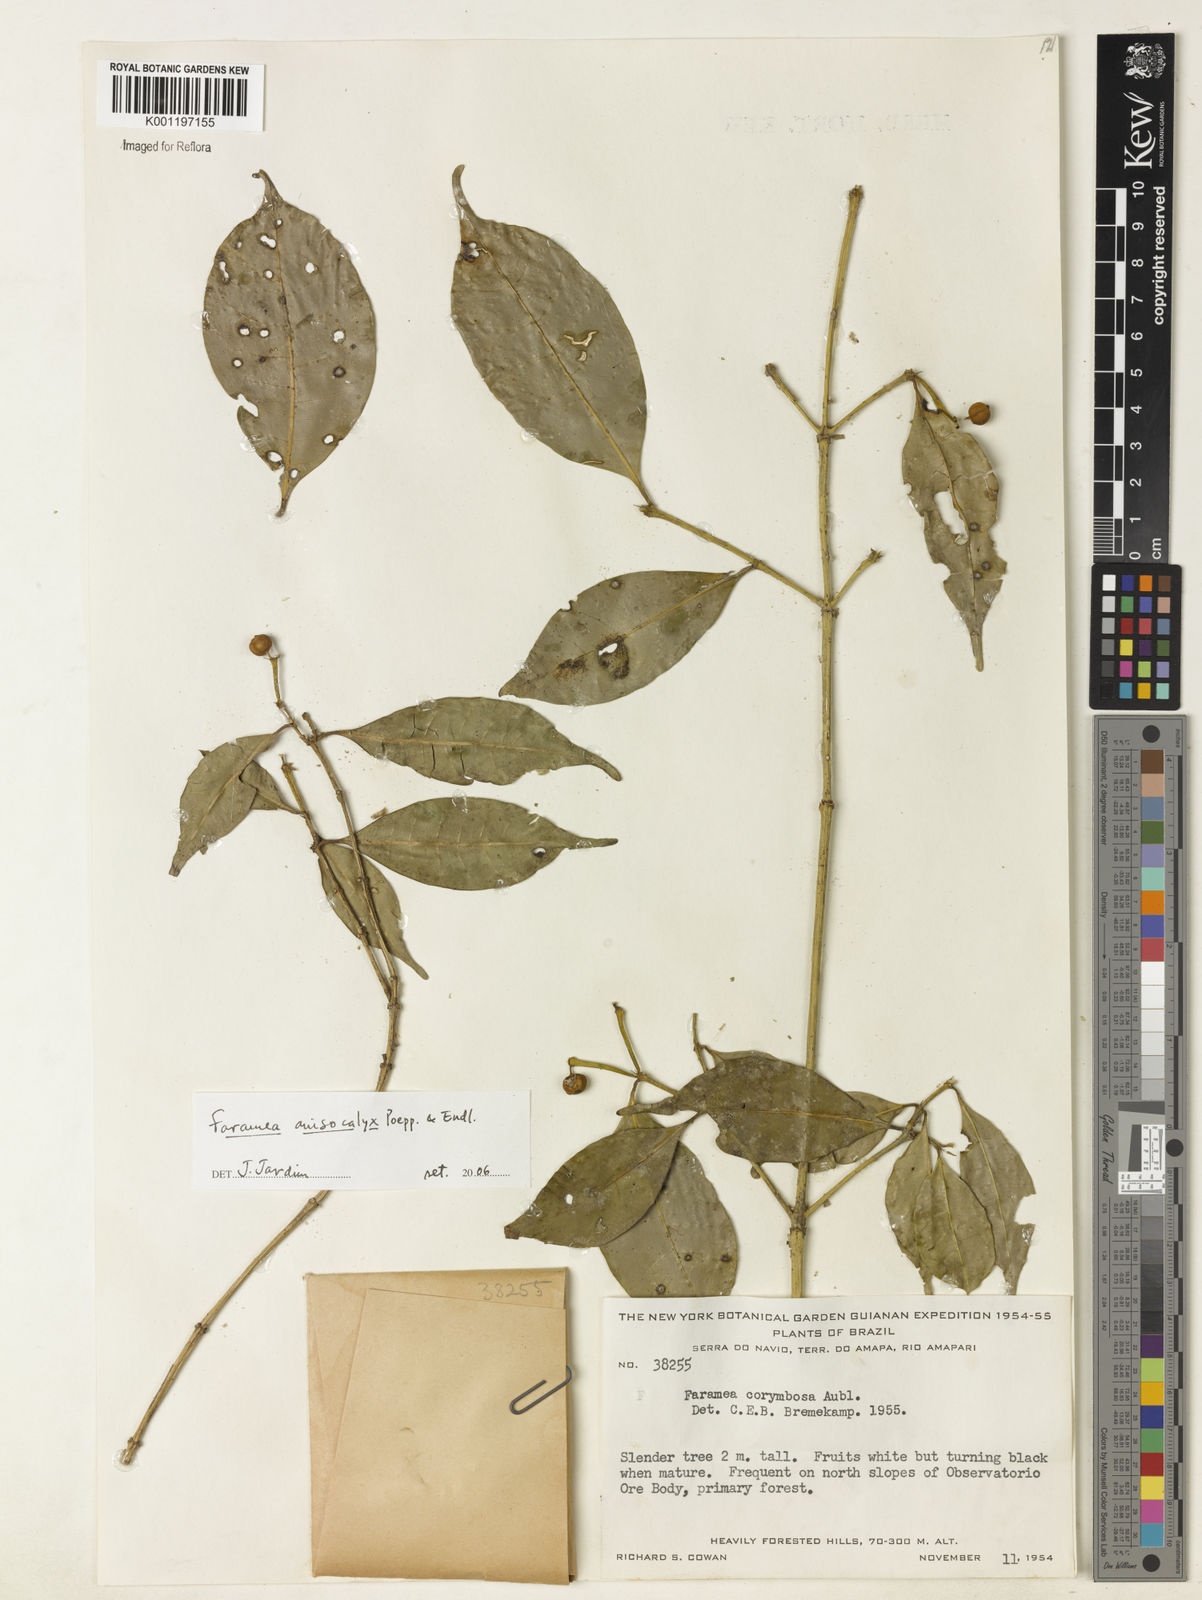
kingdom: Plantae
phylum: Tracheophyta
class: Magnoliopsida
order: Gentianales
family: Rubiaceae
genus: Faramea
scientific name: Faramea anisocalyx
